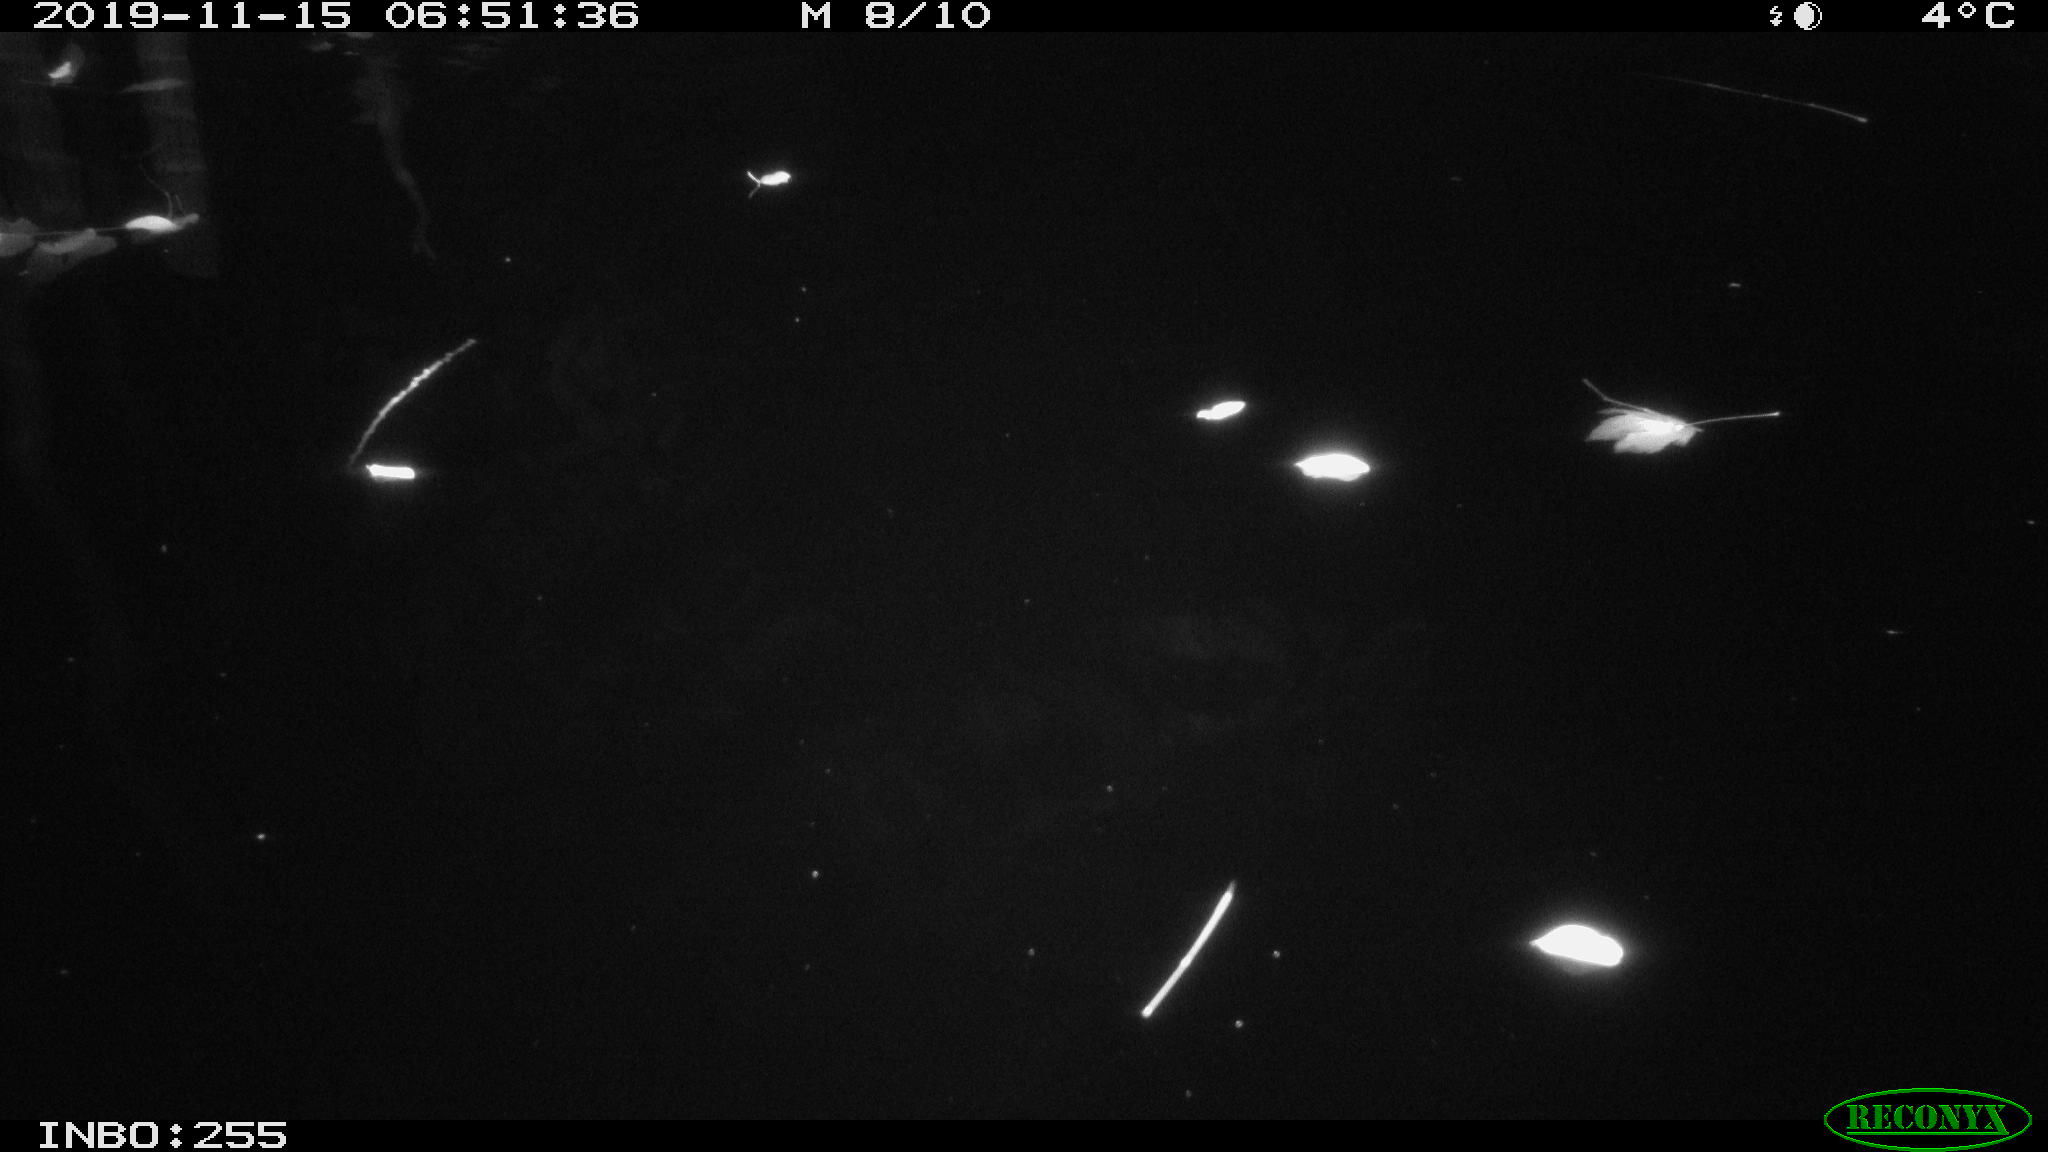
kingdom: Animalia
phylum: Chordata
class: Mammalia
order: Rodentia
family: Muridae
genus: Rattus
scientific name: Rattus norvegicus
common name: Brown rat
